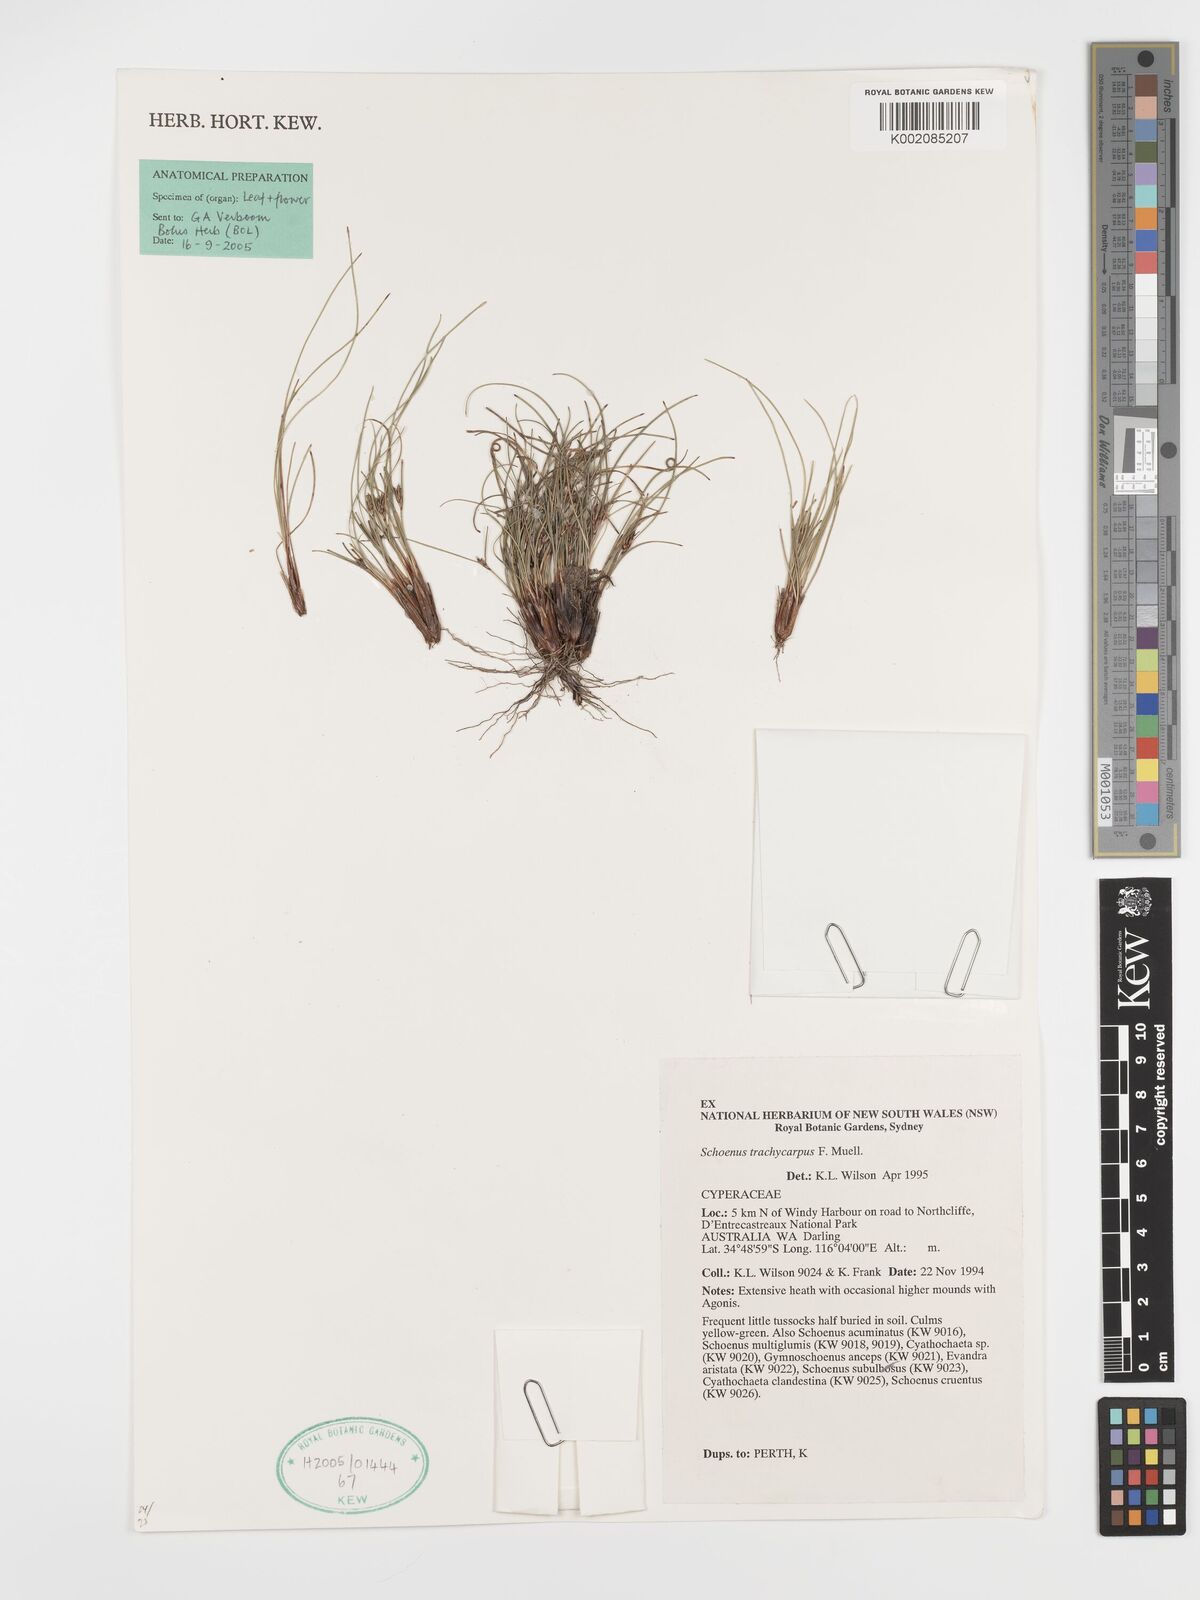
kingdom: Plantae
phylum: Tracheophyta
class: Liliopsida
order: Poales
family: Cyperaceae
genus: Schoenus
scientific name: Schoenus trachycarpus
